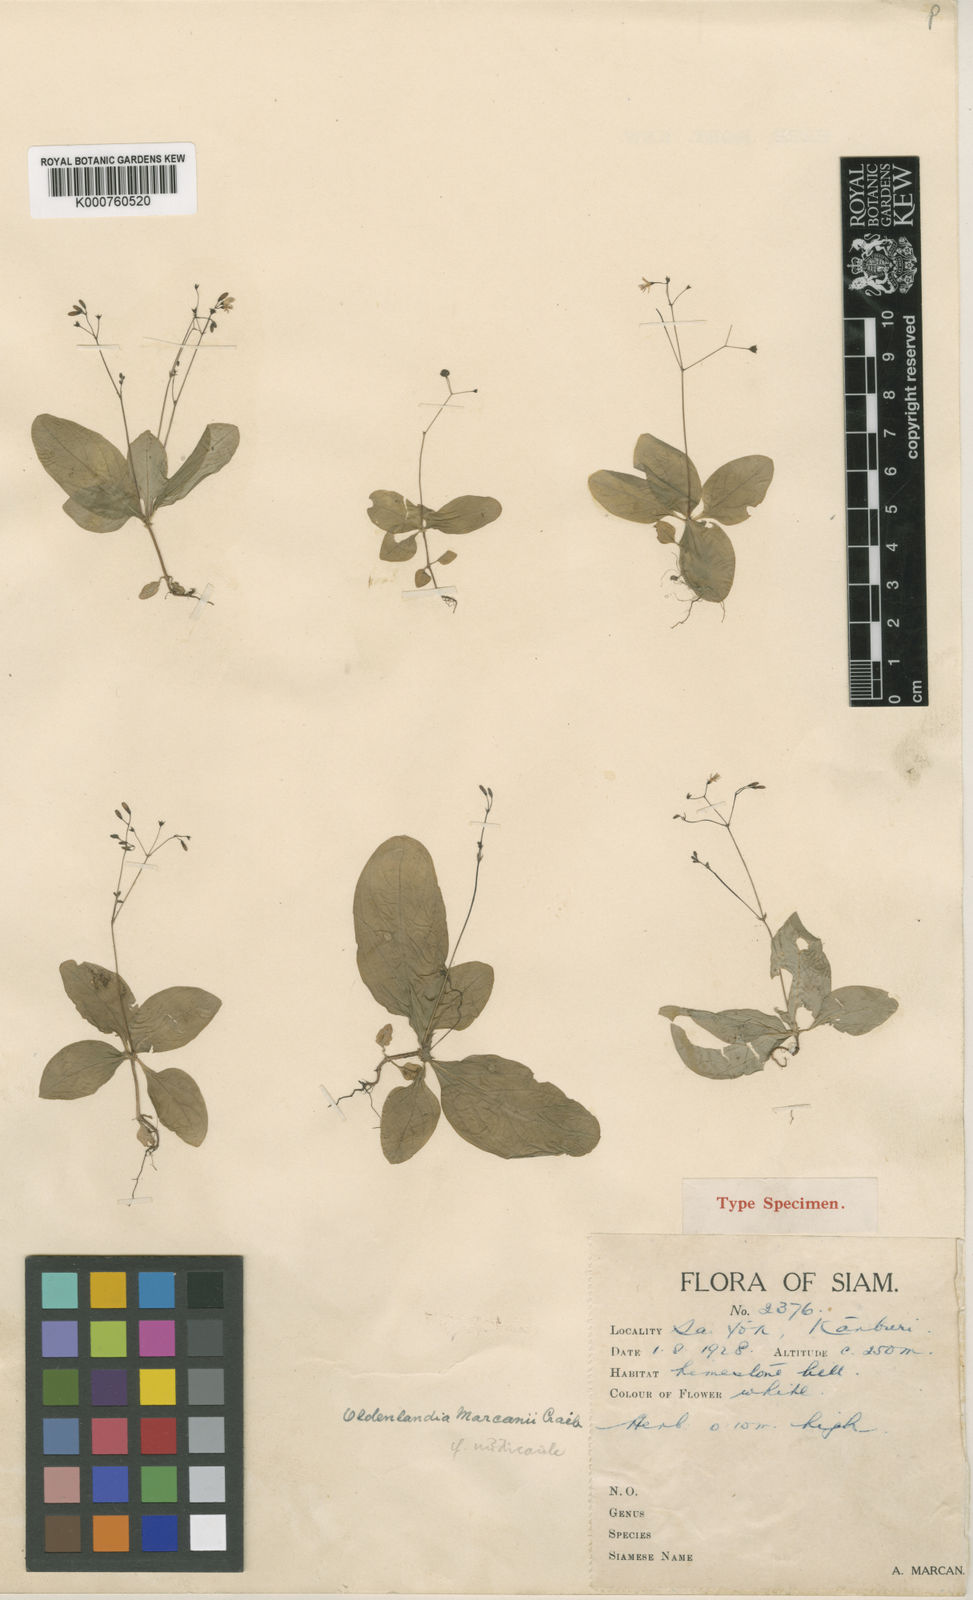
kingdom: Plantae
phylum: Tracheophyta
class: Magnoliopsida
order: Gentianales
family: Rubiaceae
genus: Debia
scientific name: Debia rosettifolia
